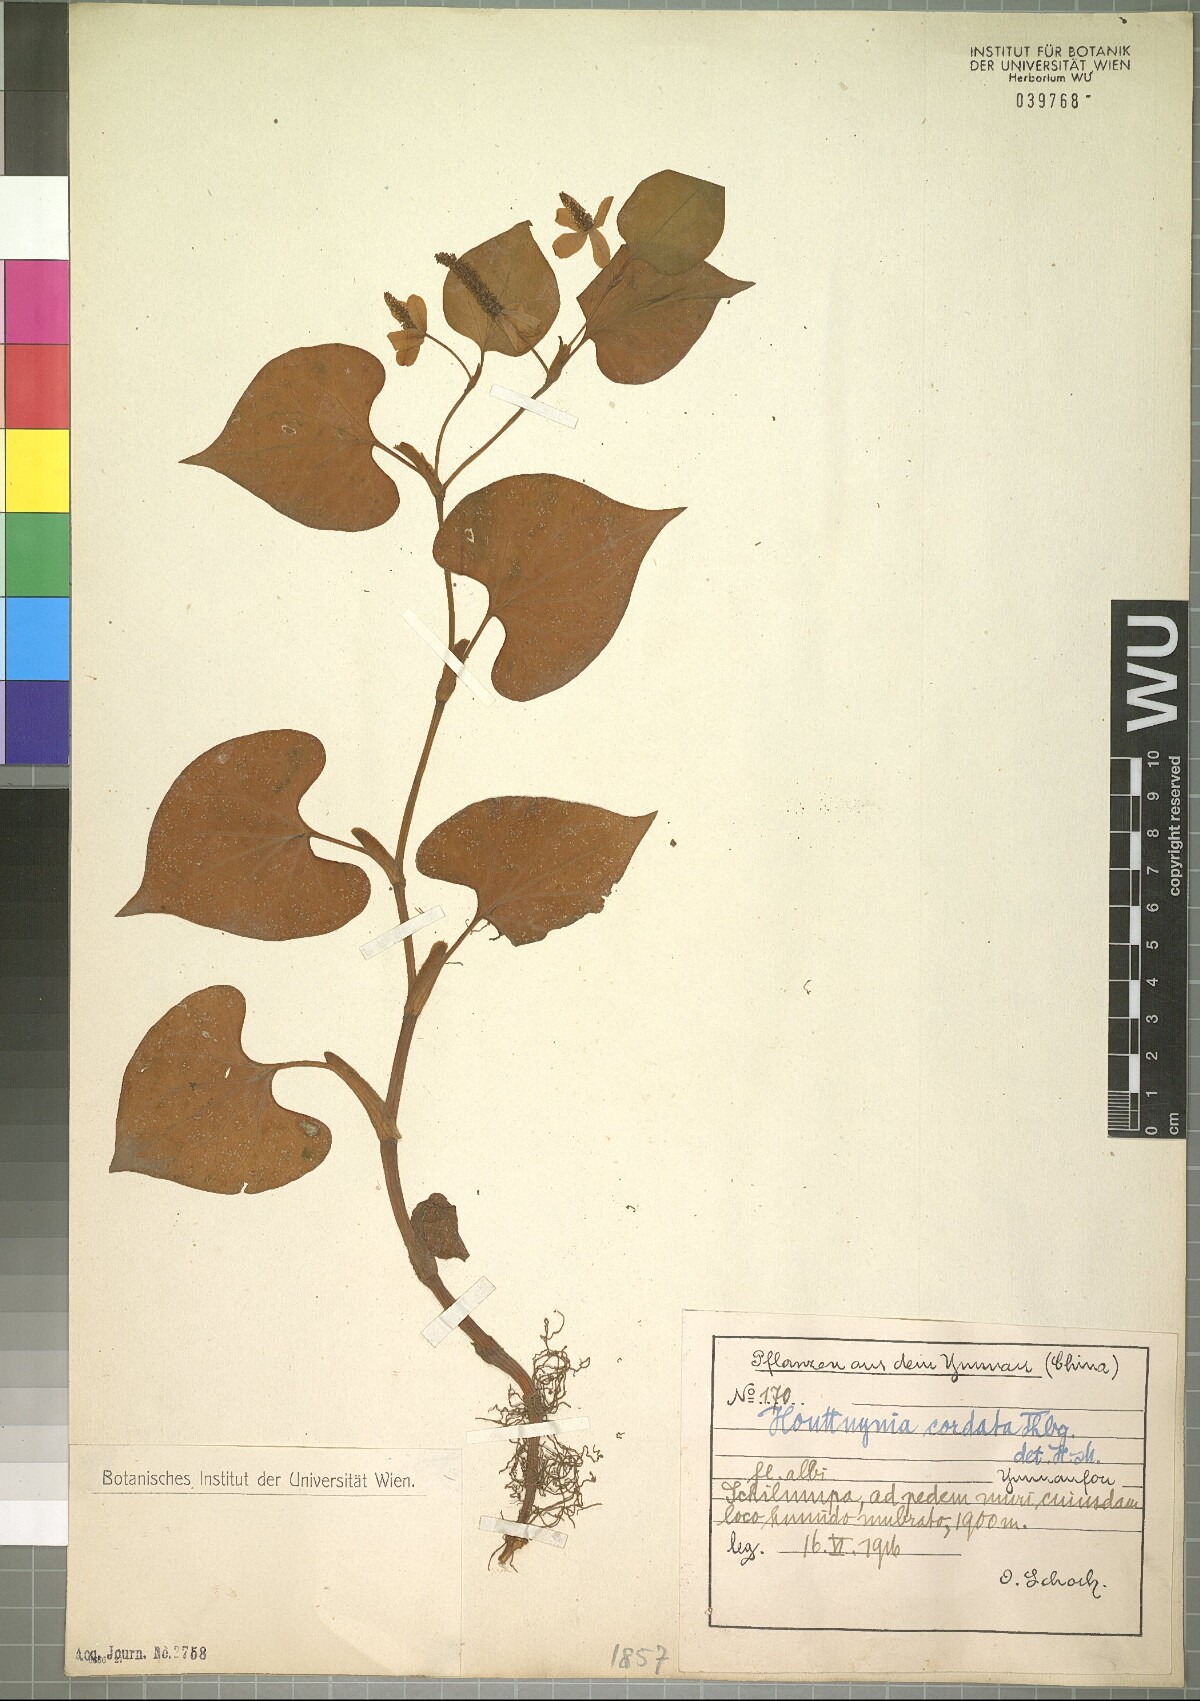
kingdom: Plantae
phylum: Tracheophyta
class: Magnoliopsida
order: Piperales
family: Saururaceae
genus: Houttuynia
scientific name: Houttuynia cordata
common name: Chameleon
